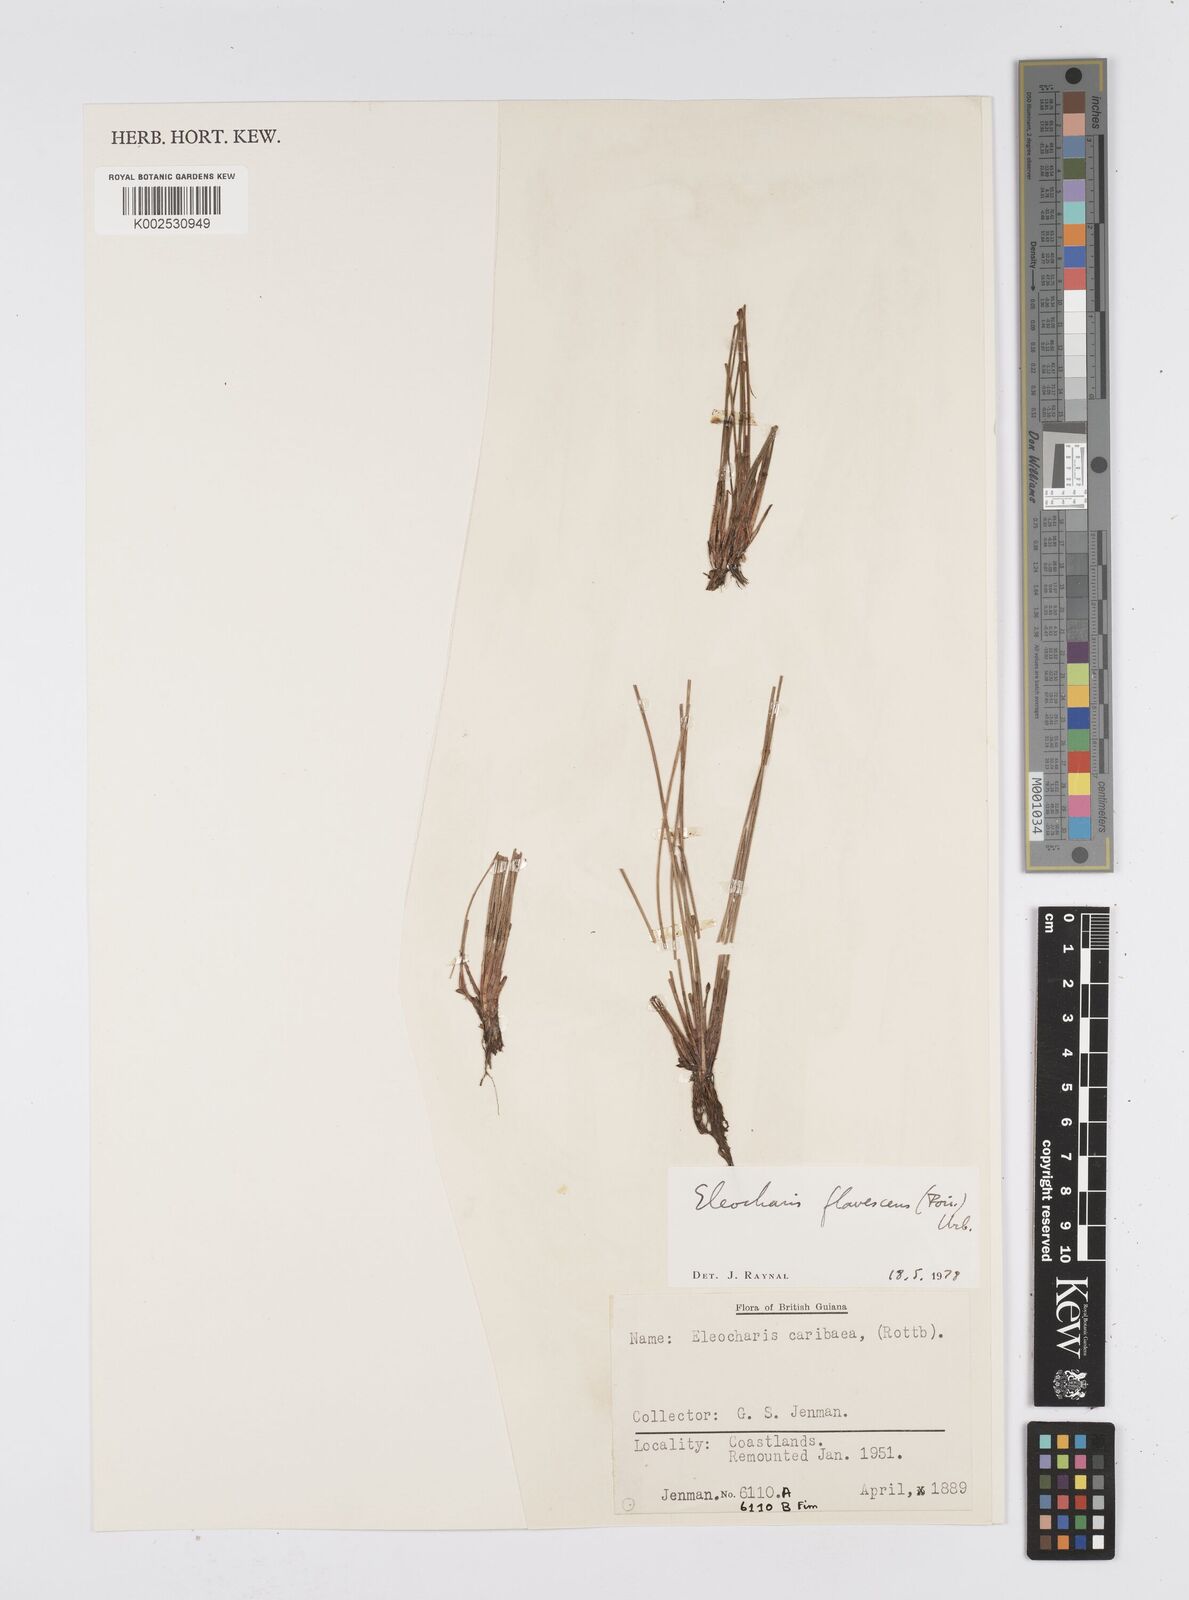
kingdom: Plantae
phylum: Tracheophyta
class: Liliopsida
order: Poales
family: Cyperaceae
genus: Eleocharis
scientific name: Eleocharis flavescens
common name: Yellow spikerush
